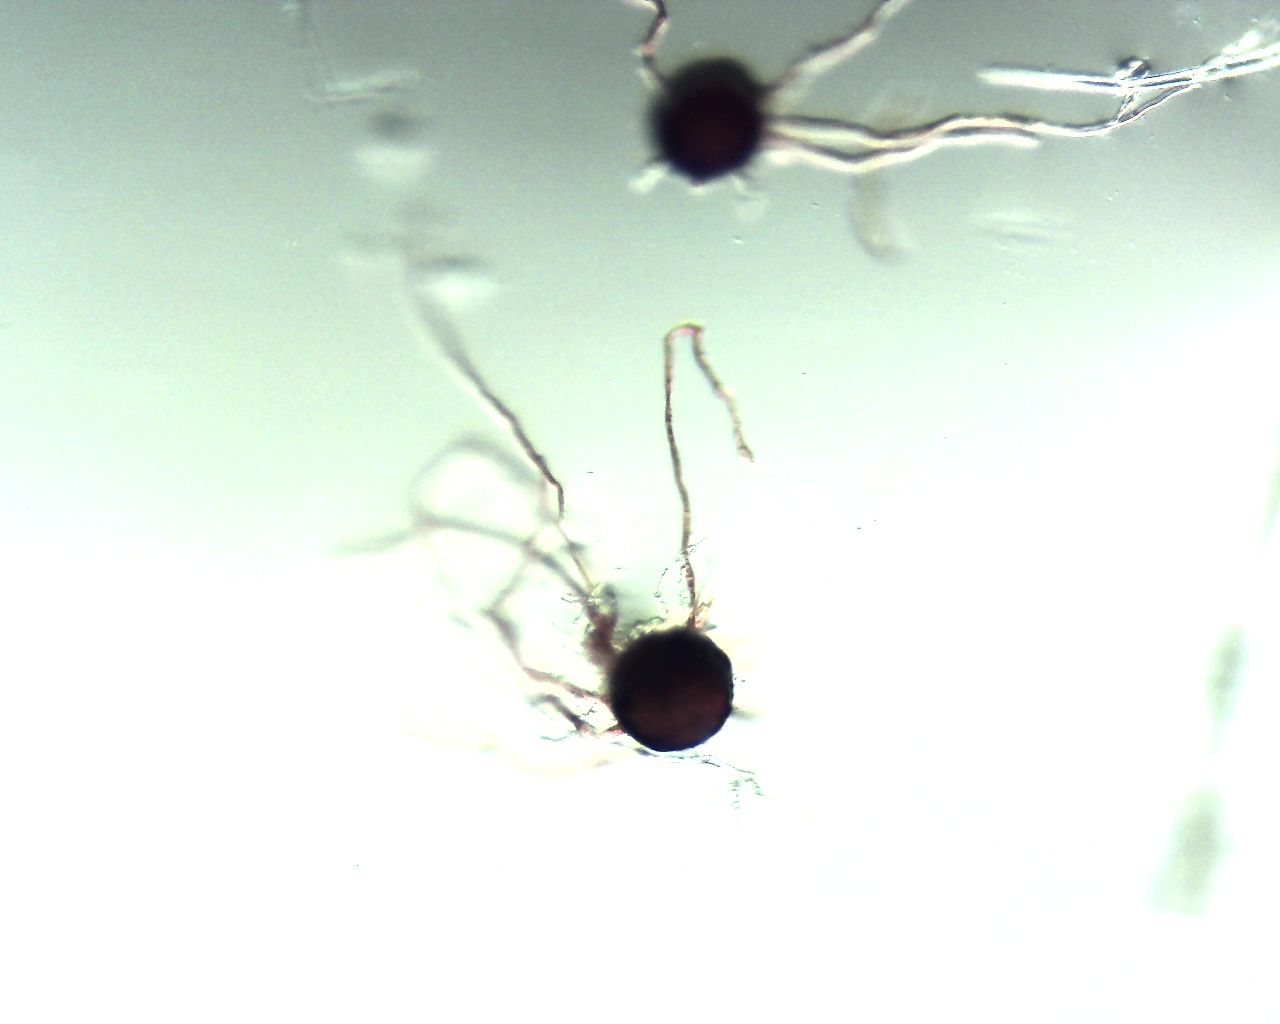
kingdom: Fungi
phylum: Ascomycota
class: Leotiomycetes
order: Helotiales
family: Erysiphaceae
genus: Erysiphe
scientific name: Erysiphe aquilegiae
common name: ranunkel-meldug
